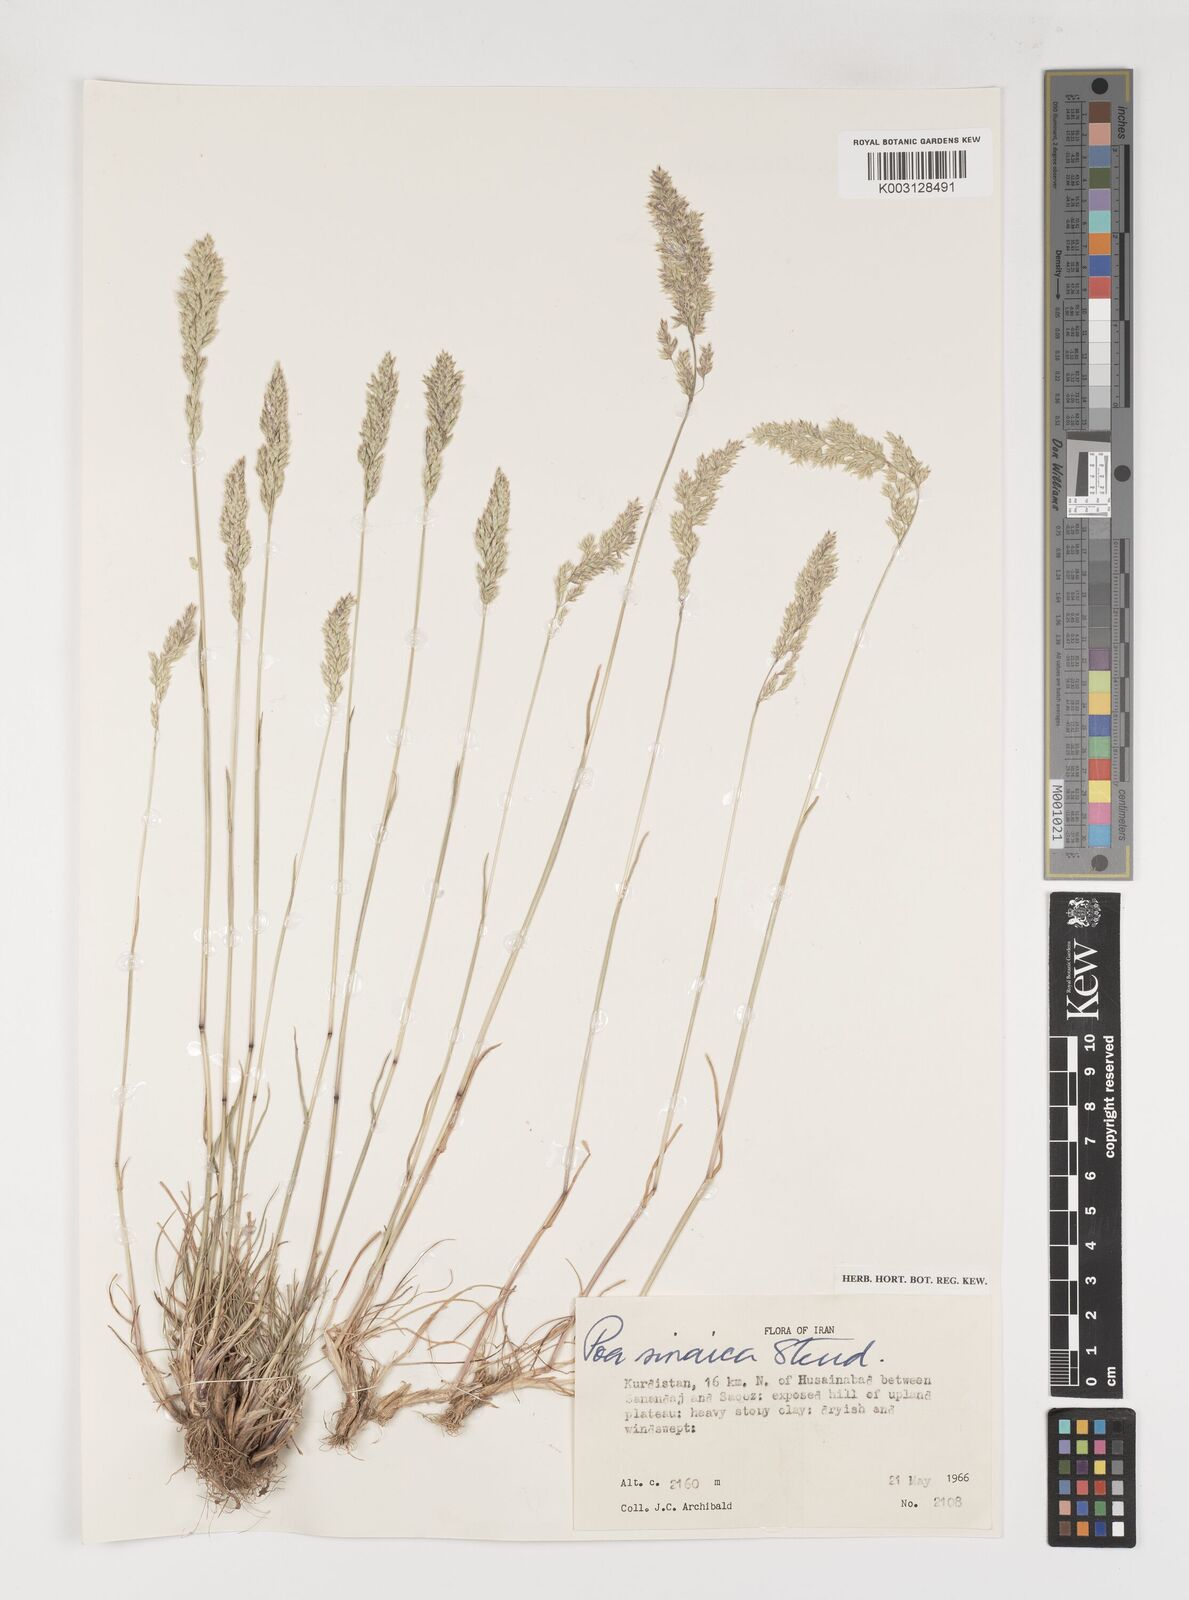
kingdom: Plantae
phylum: Tracheophyta
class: Liliopsida
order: Poales
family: Poaceae
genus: Poa
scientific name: Poa sinaica
